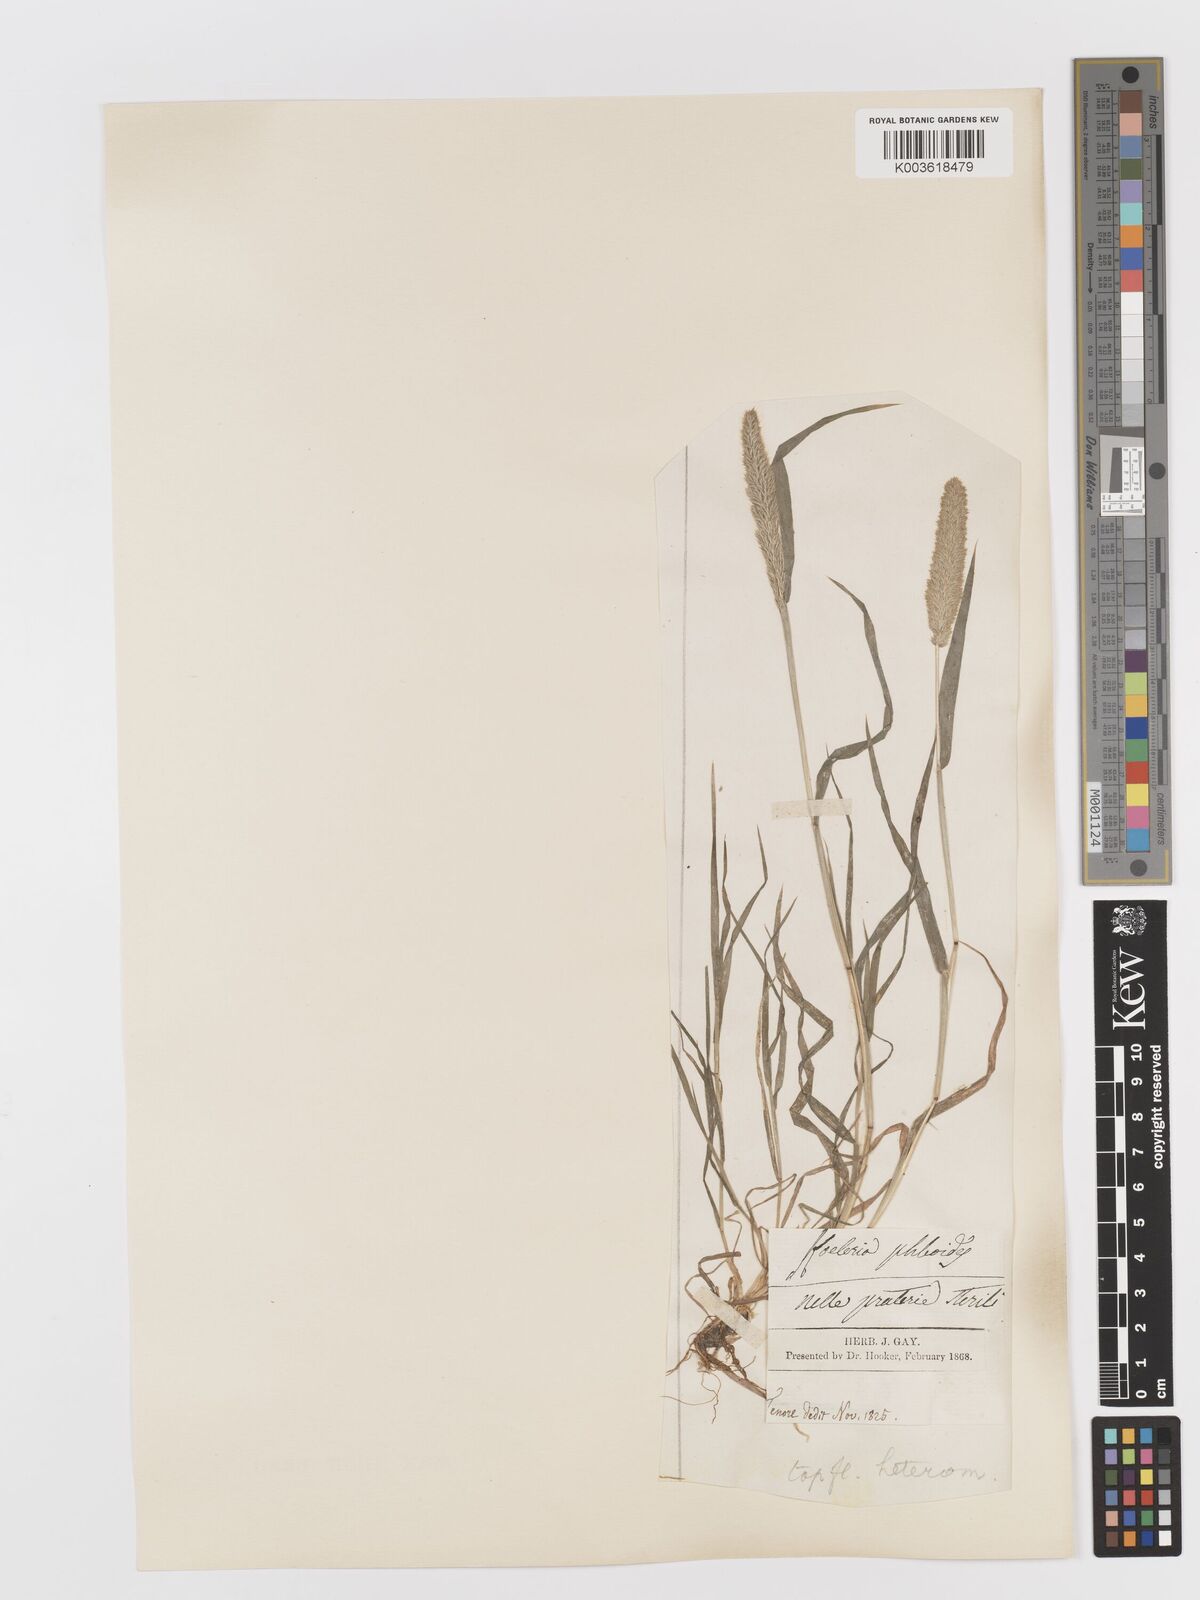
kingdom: Plantae
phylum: Tracheophyta
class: Liliopsida
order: Poales
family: Poaceae
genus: Rostraria
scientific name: Rostraria cristata
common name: Mediterranean hair-grass
